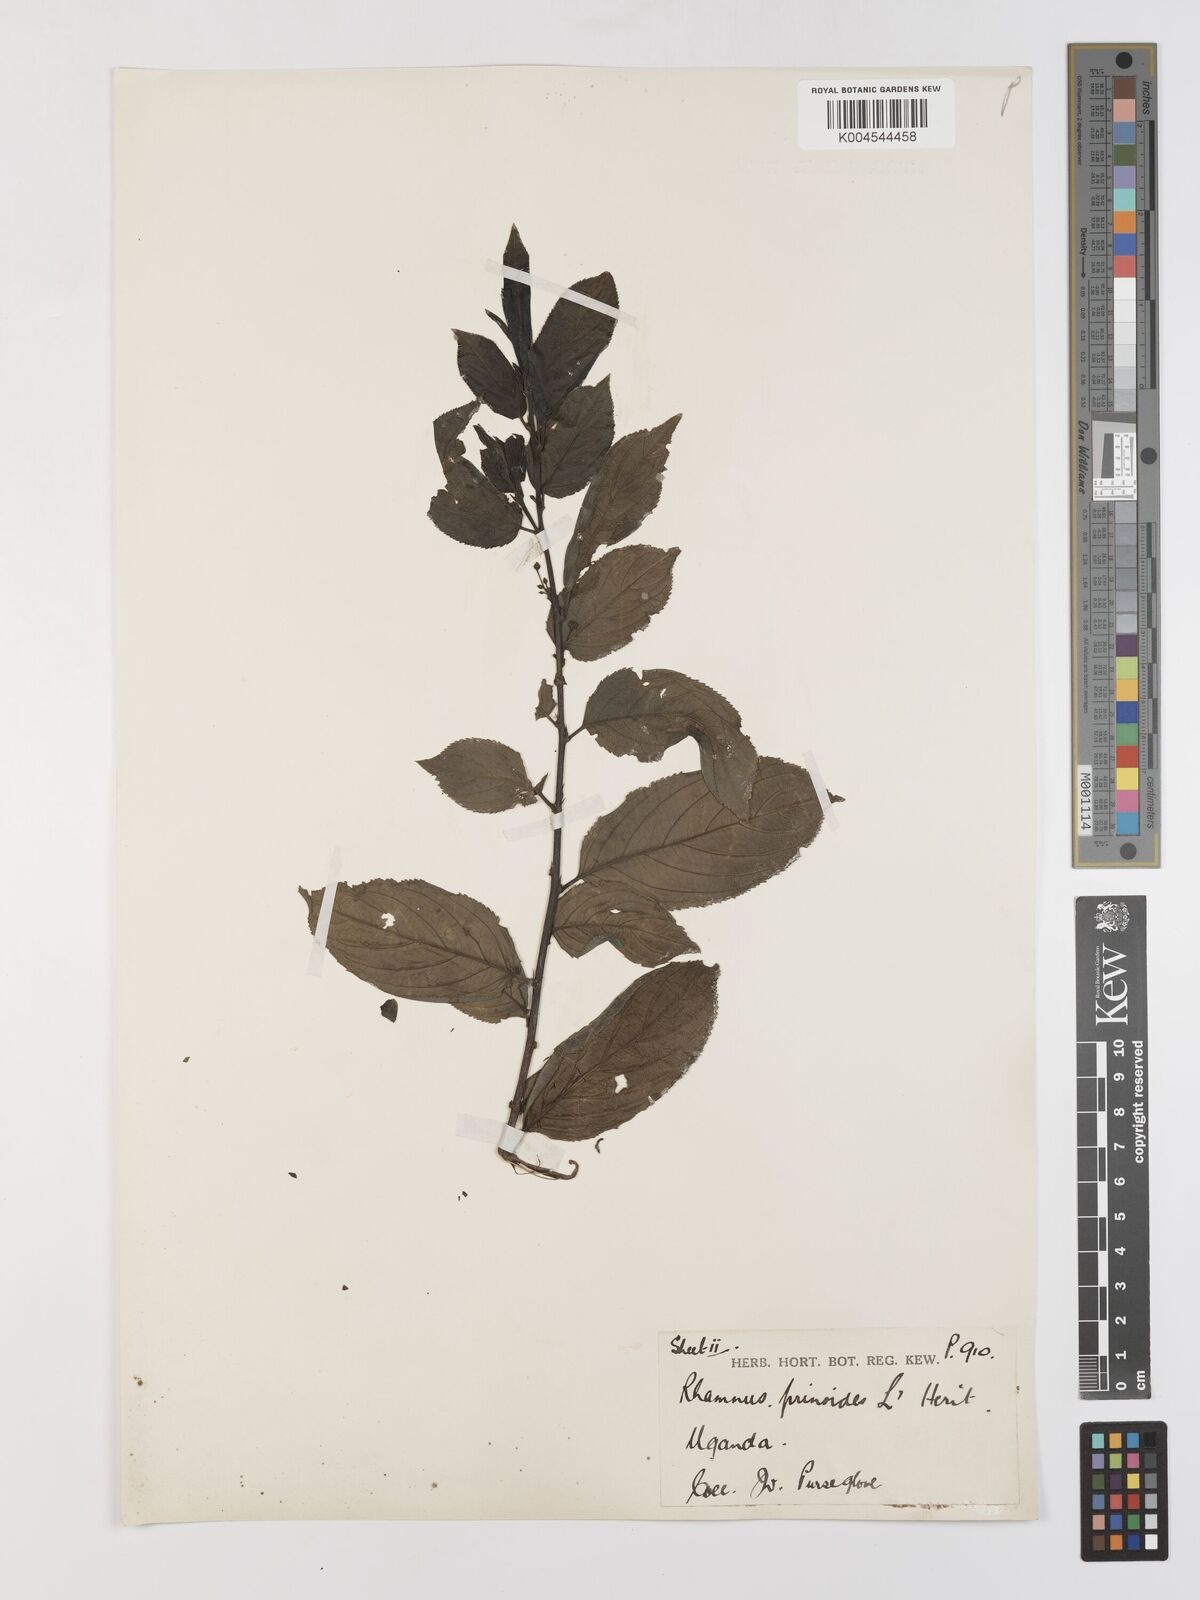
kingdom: Plantae
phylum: Tracheophyta
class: Magnoliopsida
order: Rosales
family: Rhamnaceae
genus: Rhamnus
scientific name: Rhamnus prinoides
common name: Dogwood
